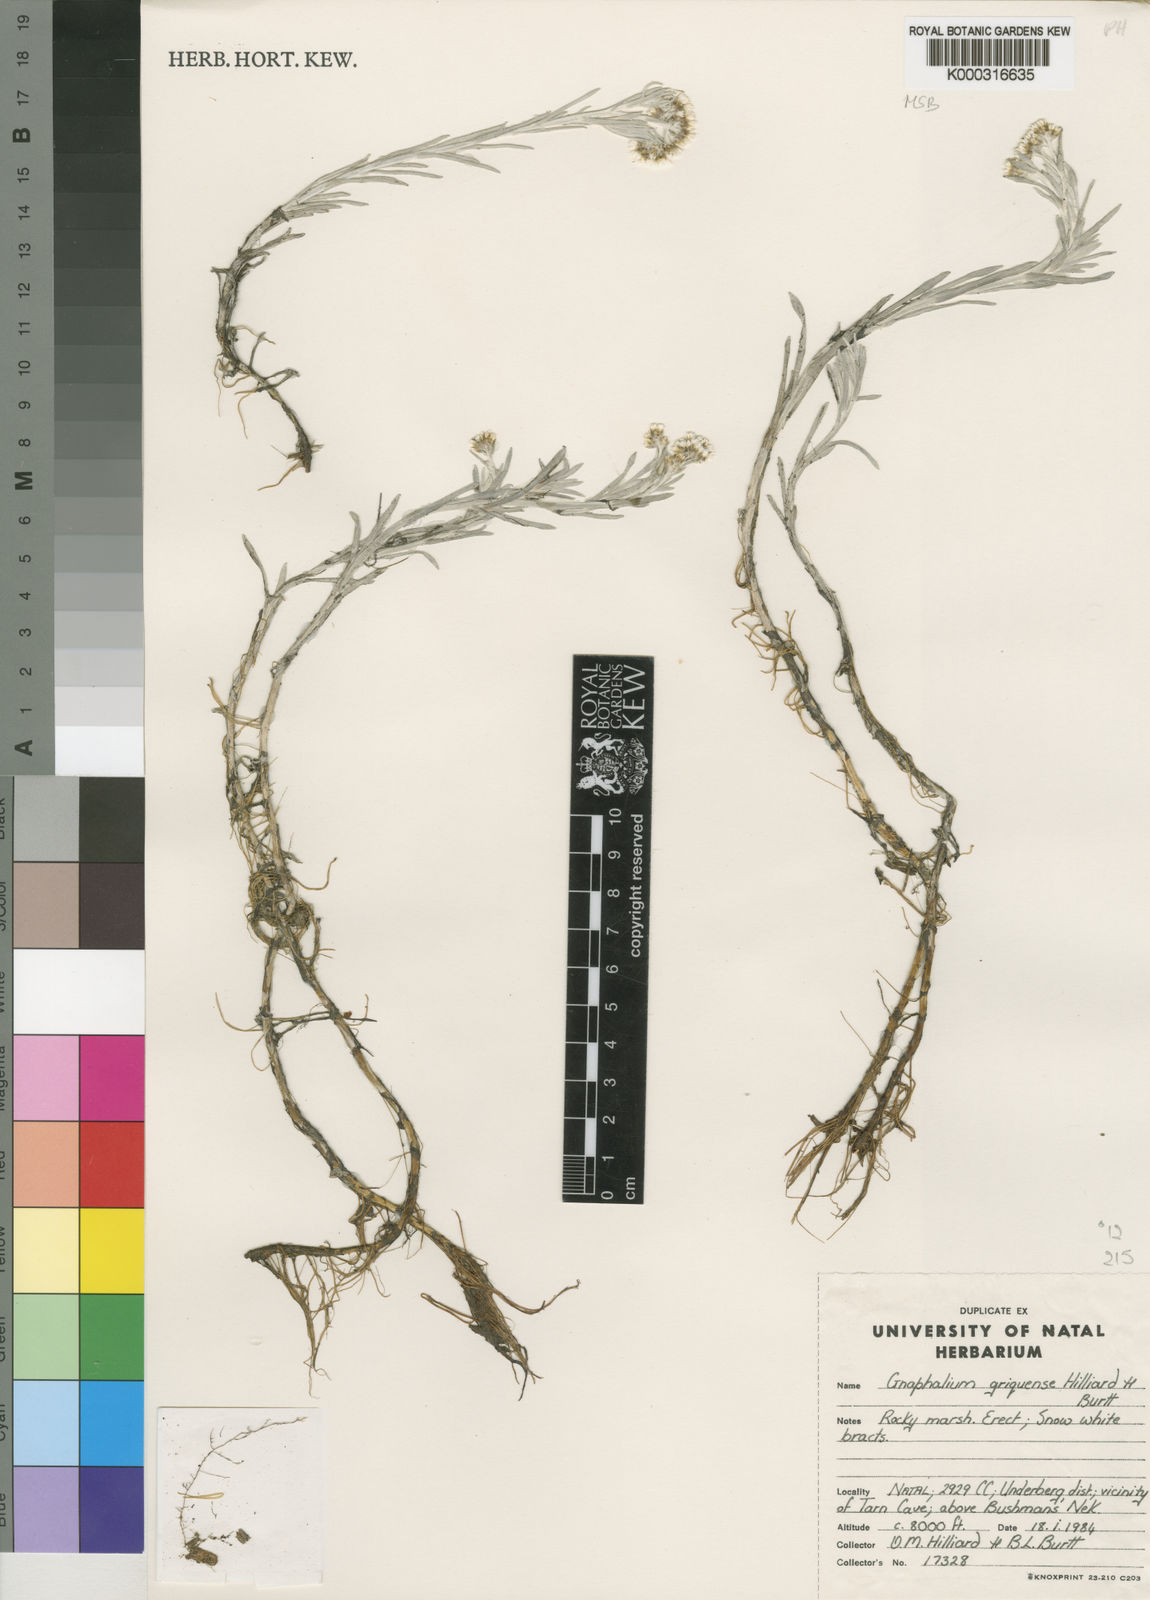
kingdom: Plantae
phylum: Tracheophyta
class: Magnoliopsida
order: Asterales
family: Asteraceae
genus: Gnaphalium
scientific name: Gnaphalium griquense
